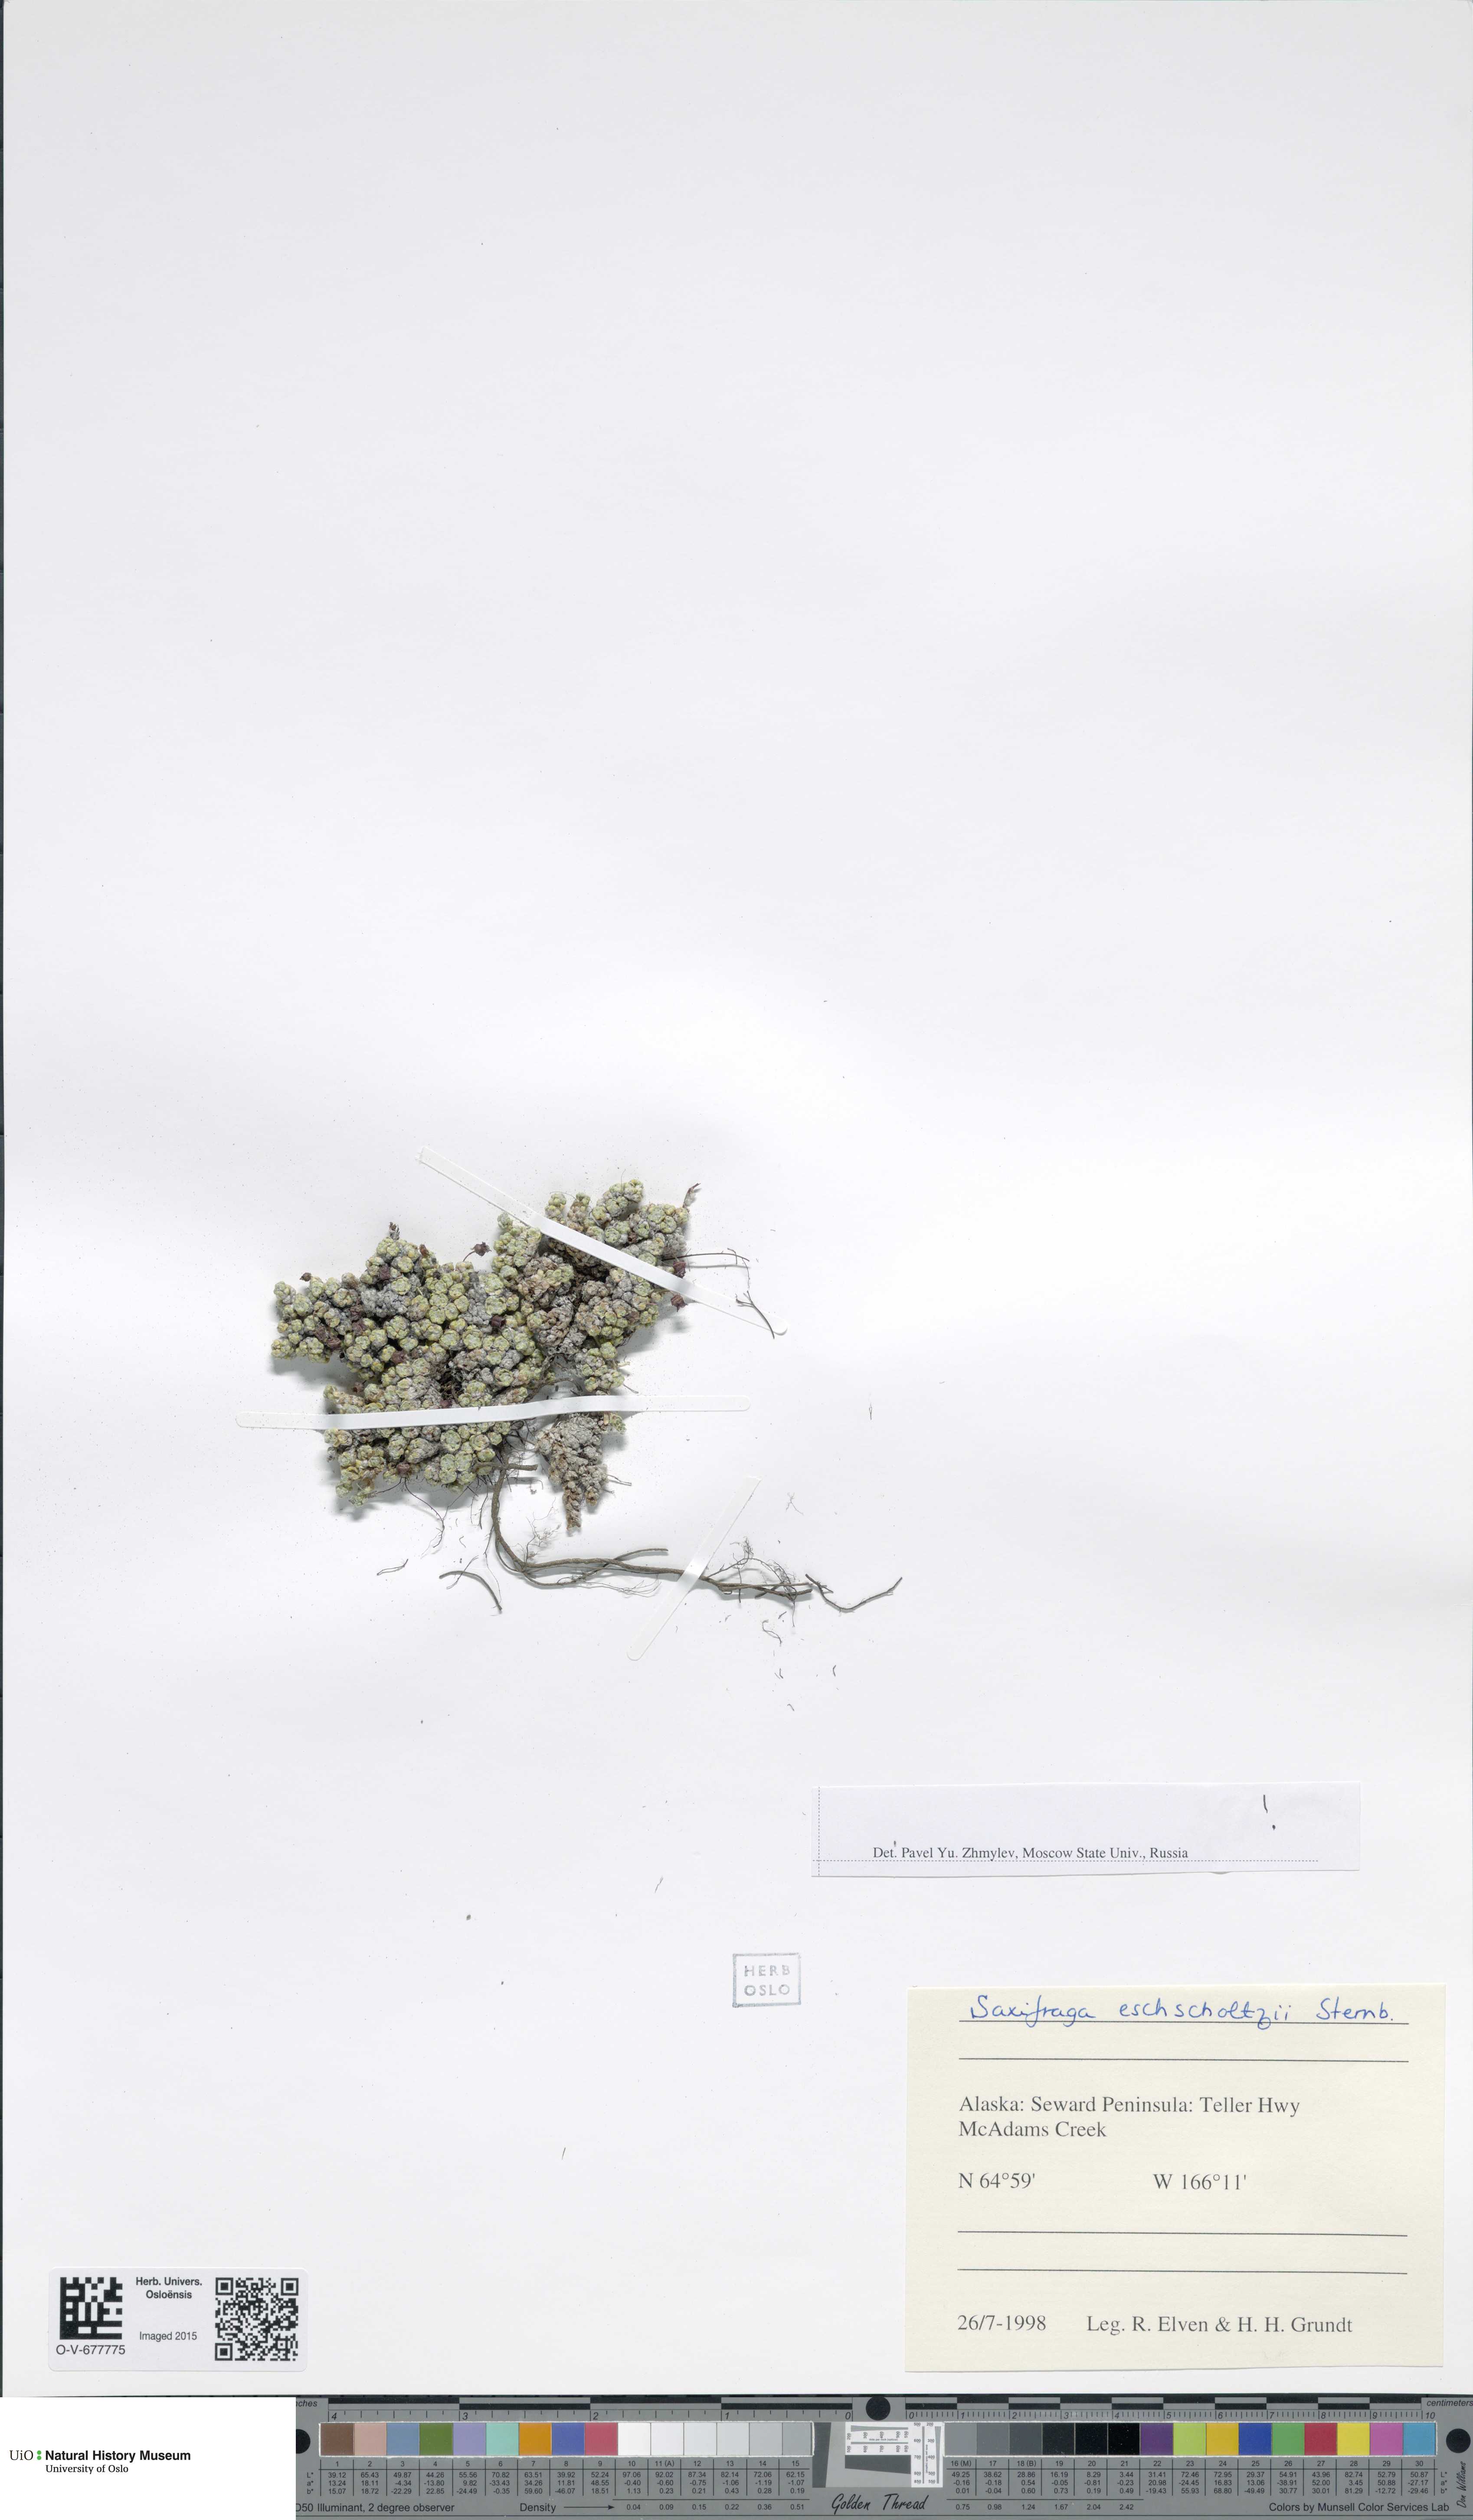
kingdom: Plantae
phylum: Tracheophyta
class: Magnoliopsida
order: Saxifragales
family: Saxifragaceae
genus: Saxifraga
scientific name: Saxifraga eschscholtzii
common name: Eschscholtz's saxifrage
